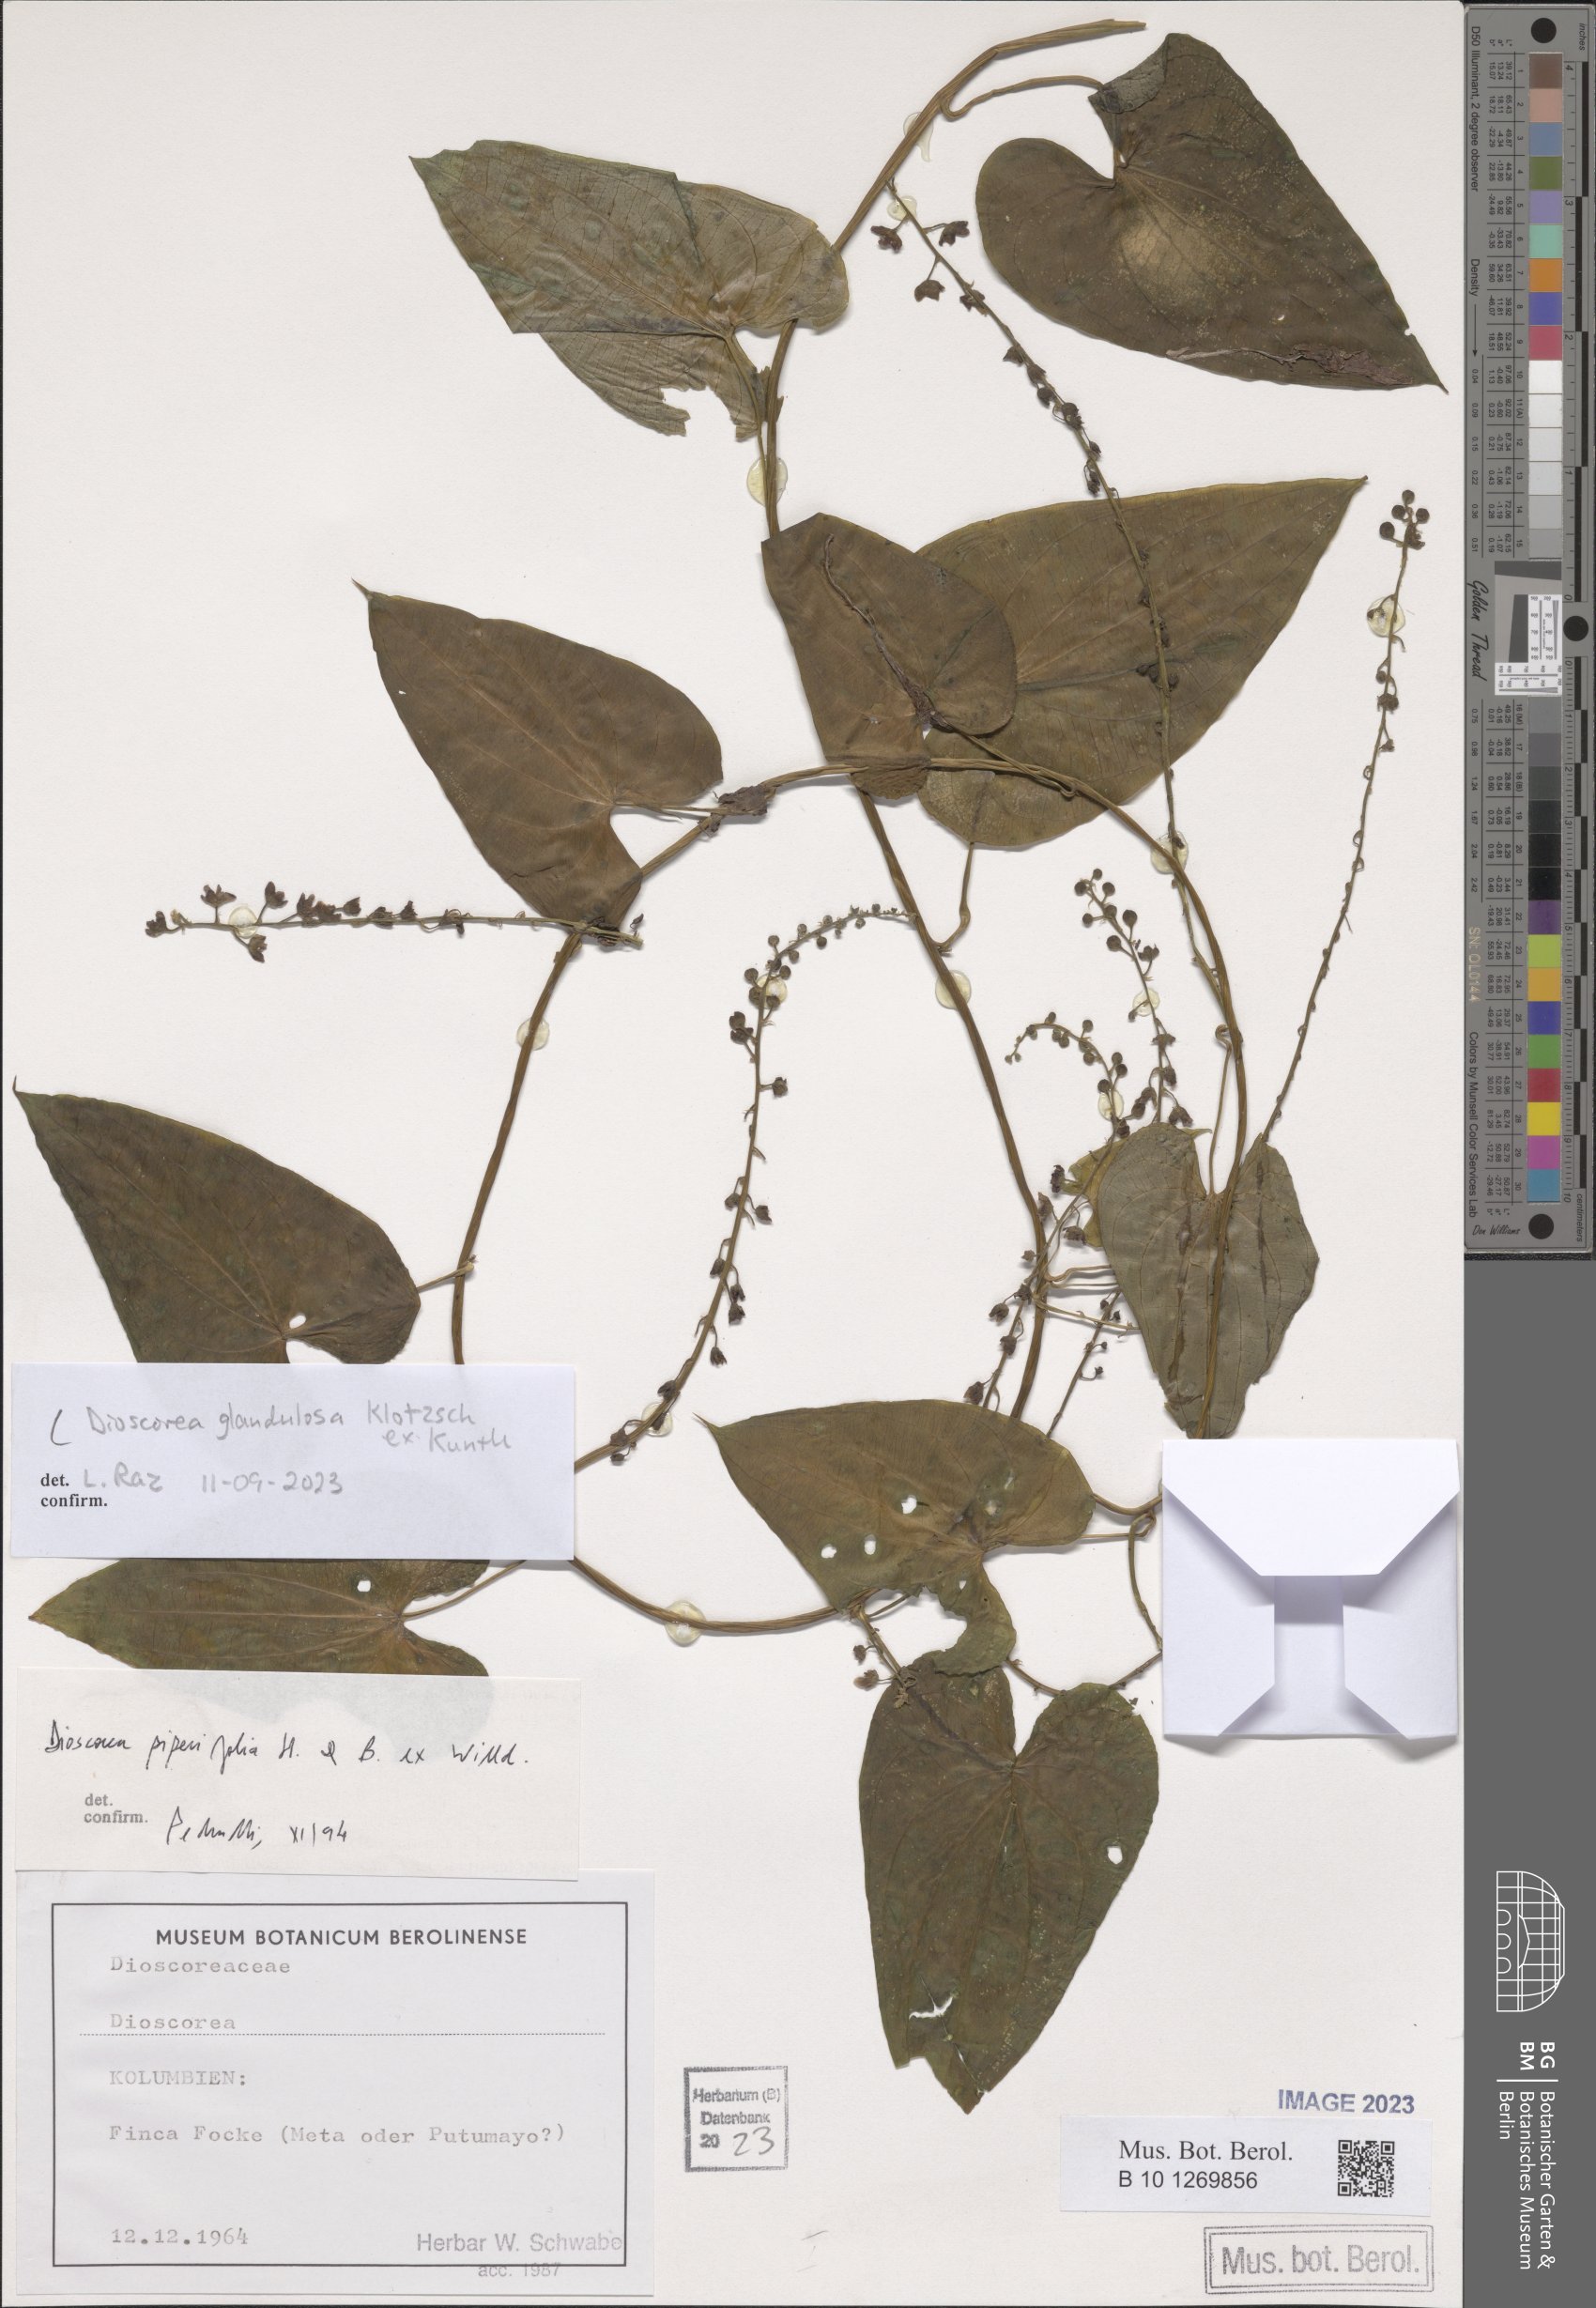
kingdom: Plantae
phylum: Tracheophyta
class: Liliopsida
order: Dioscoreales
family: Dioscoreaceae
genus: Dioscorea
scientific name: Dioscorea glandulosa
